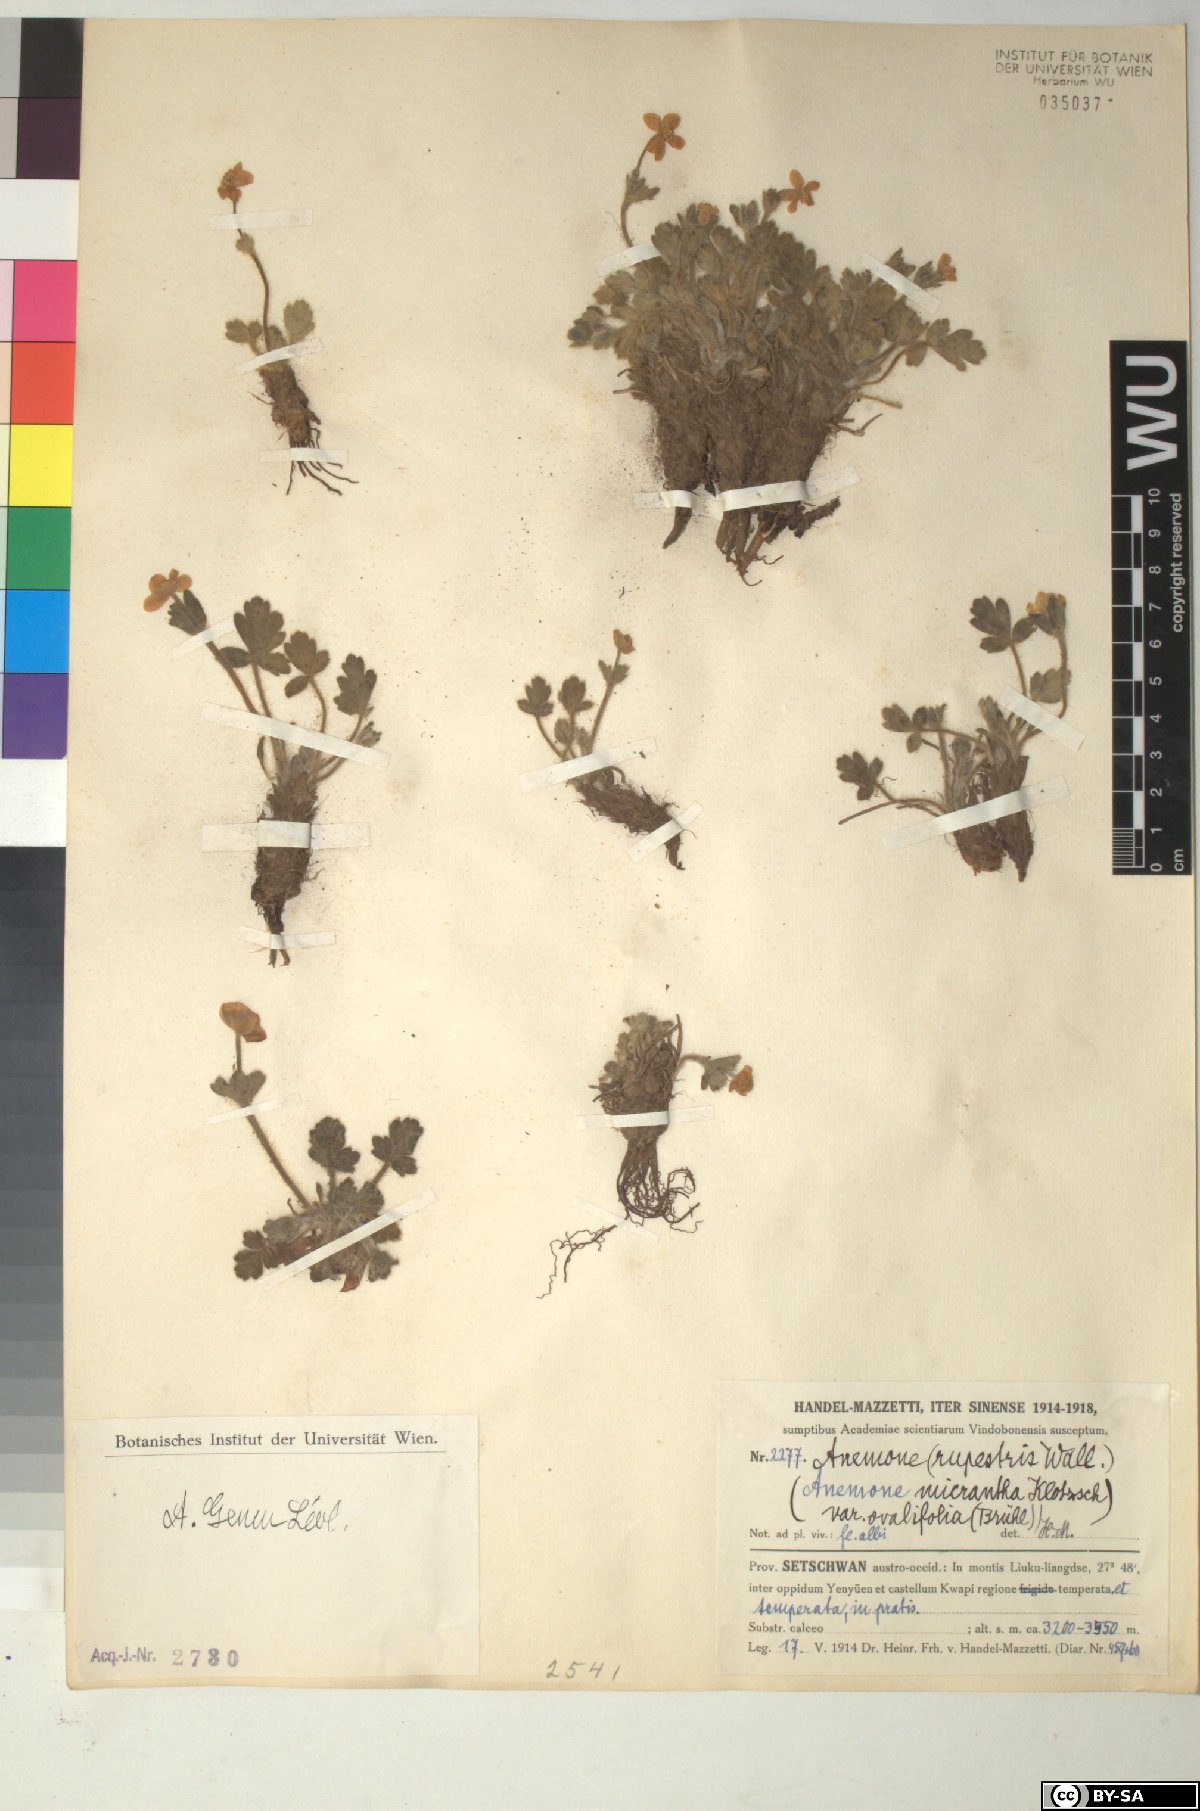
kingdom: Plantae
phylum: Tracheophyta
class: Magnoliopsida
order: Ranunculales
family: Ranunculaceae
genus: Anemonastrum
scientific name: Anemonastrum geum
